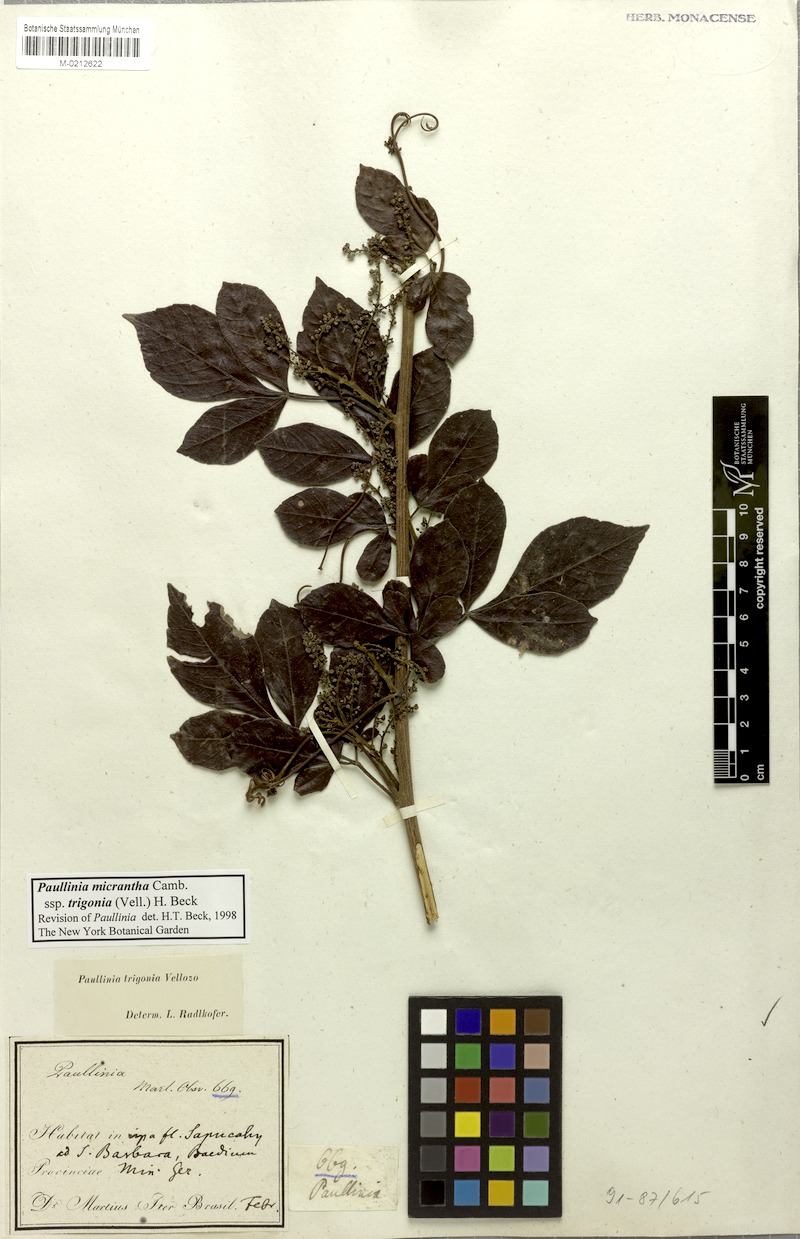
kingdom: Plantae
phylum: Tracheophyta
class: Magnoliopsida
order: Sapindales
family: Sapindaceae
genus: Paullinia
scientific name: Paullinia micrantha
